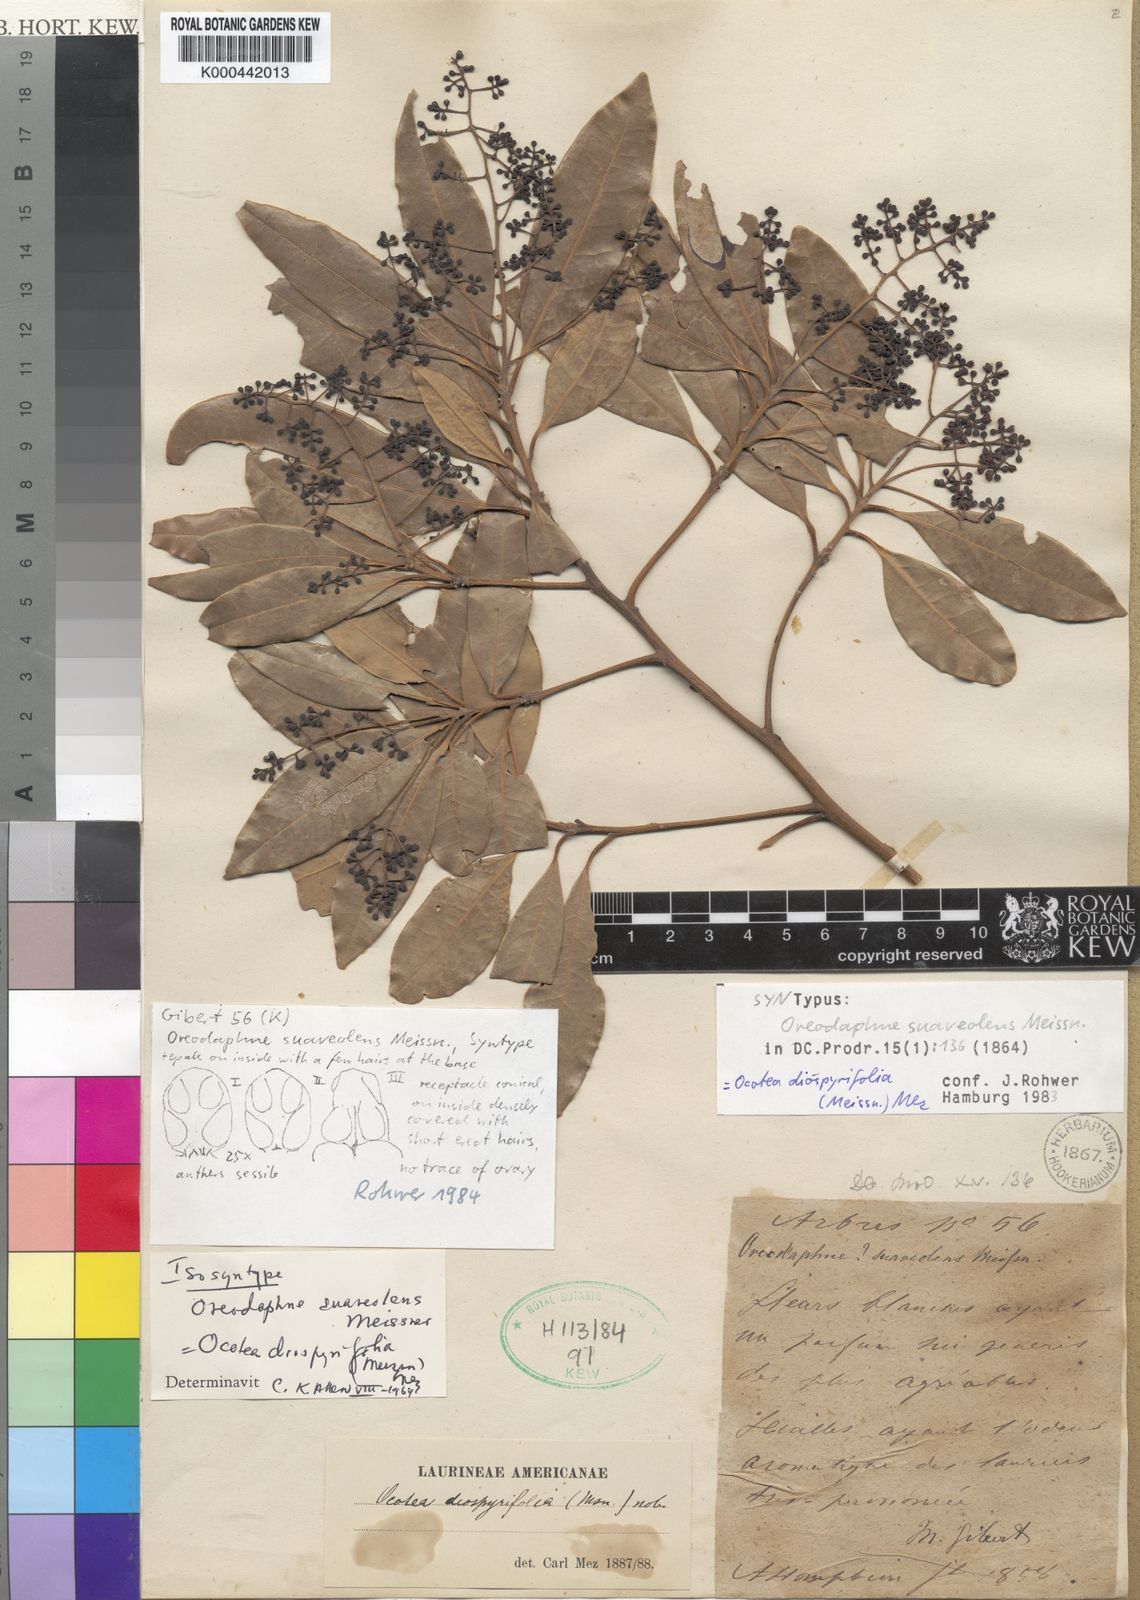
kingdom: Plantae
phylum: Tracheophyta
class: Magnoliopsida
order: Laurales
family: Lauraceae
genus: Ocotea
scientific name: Ocotea diospyrifolia
